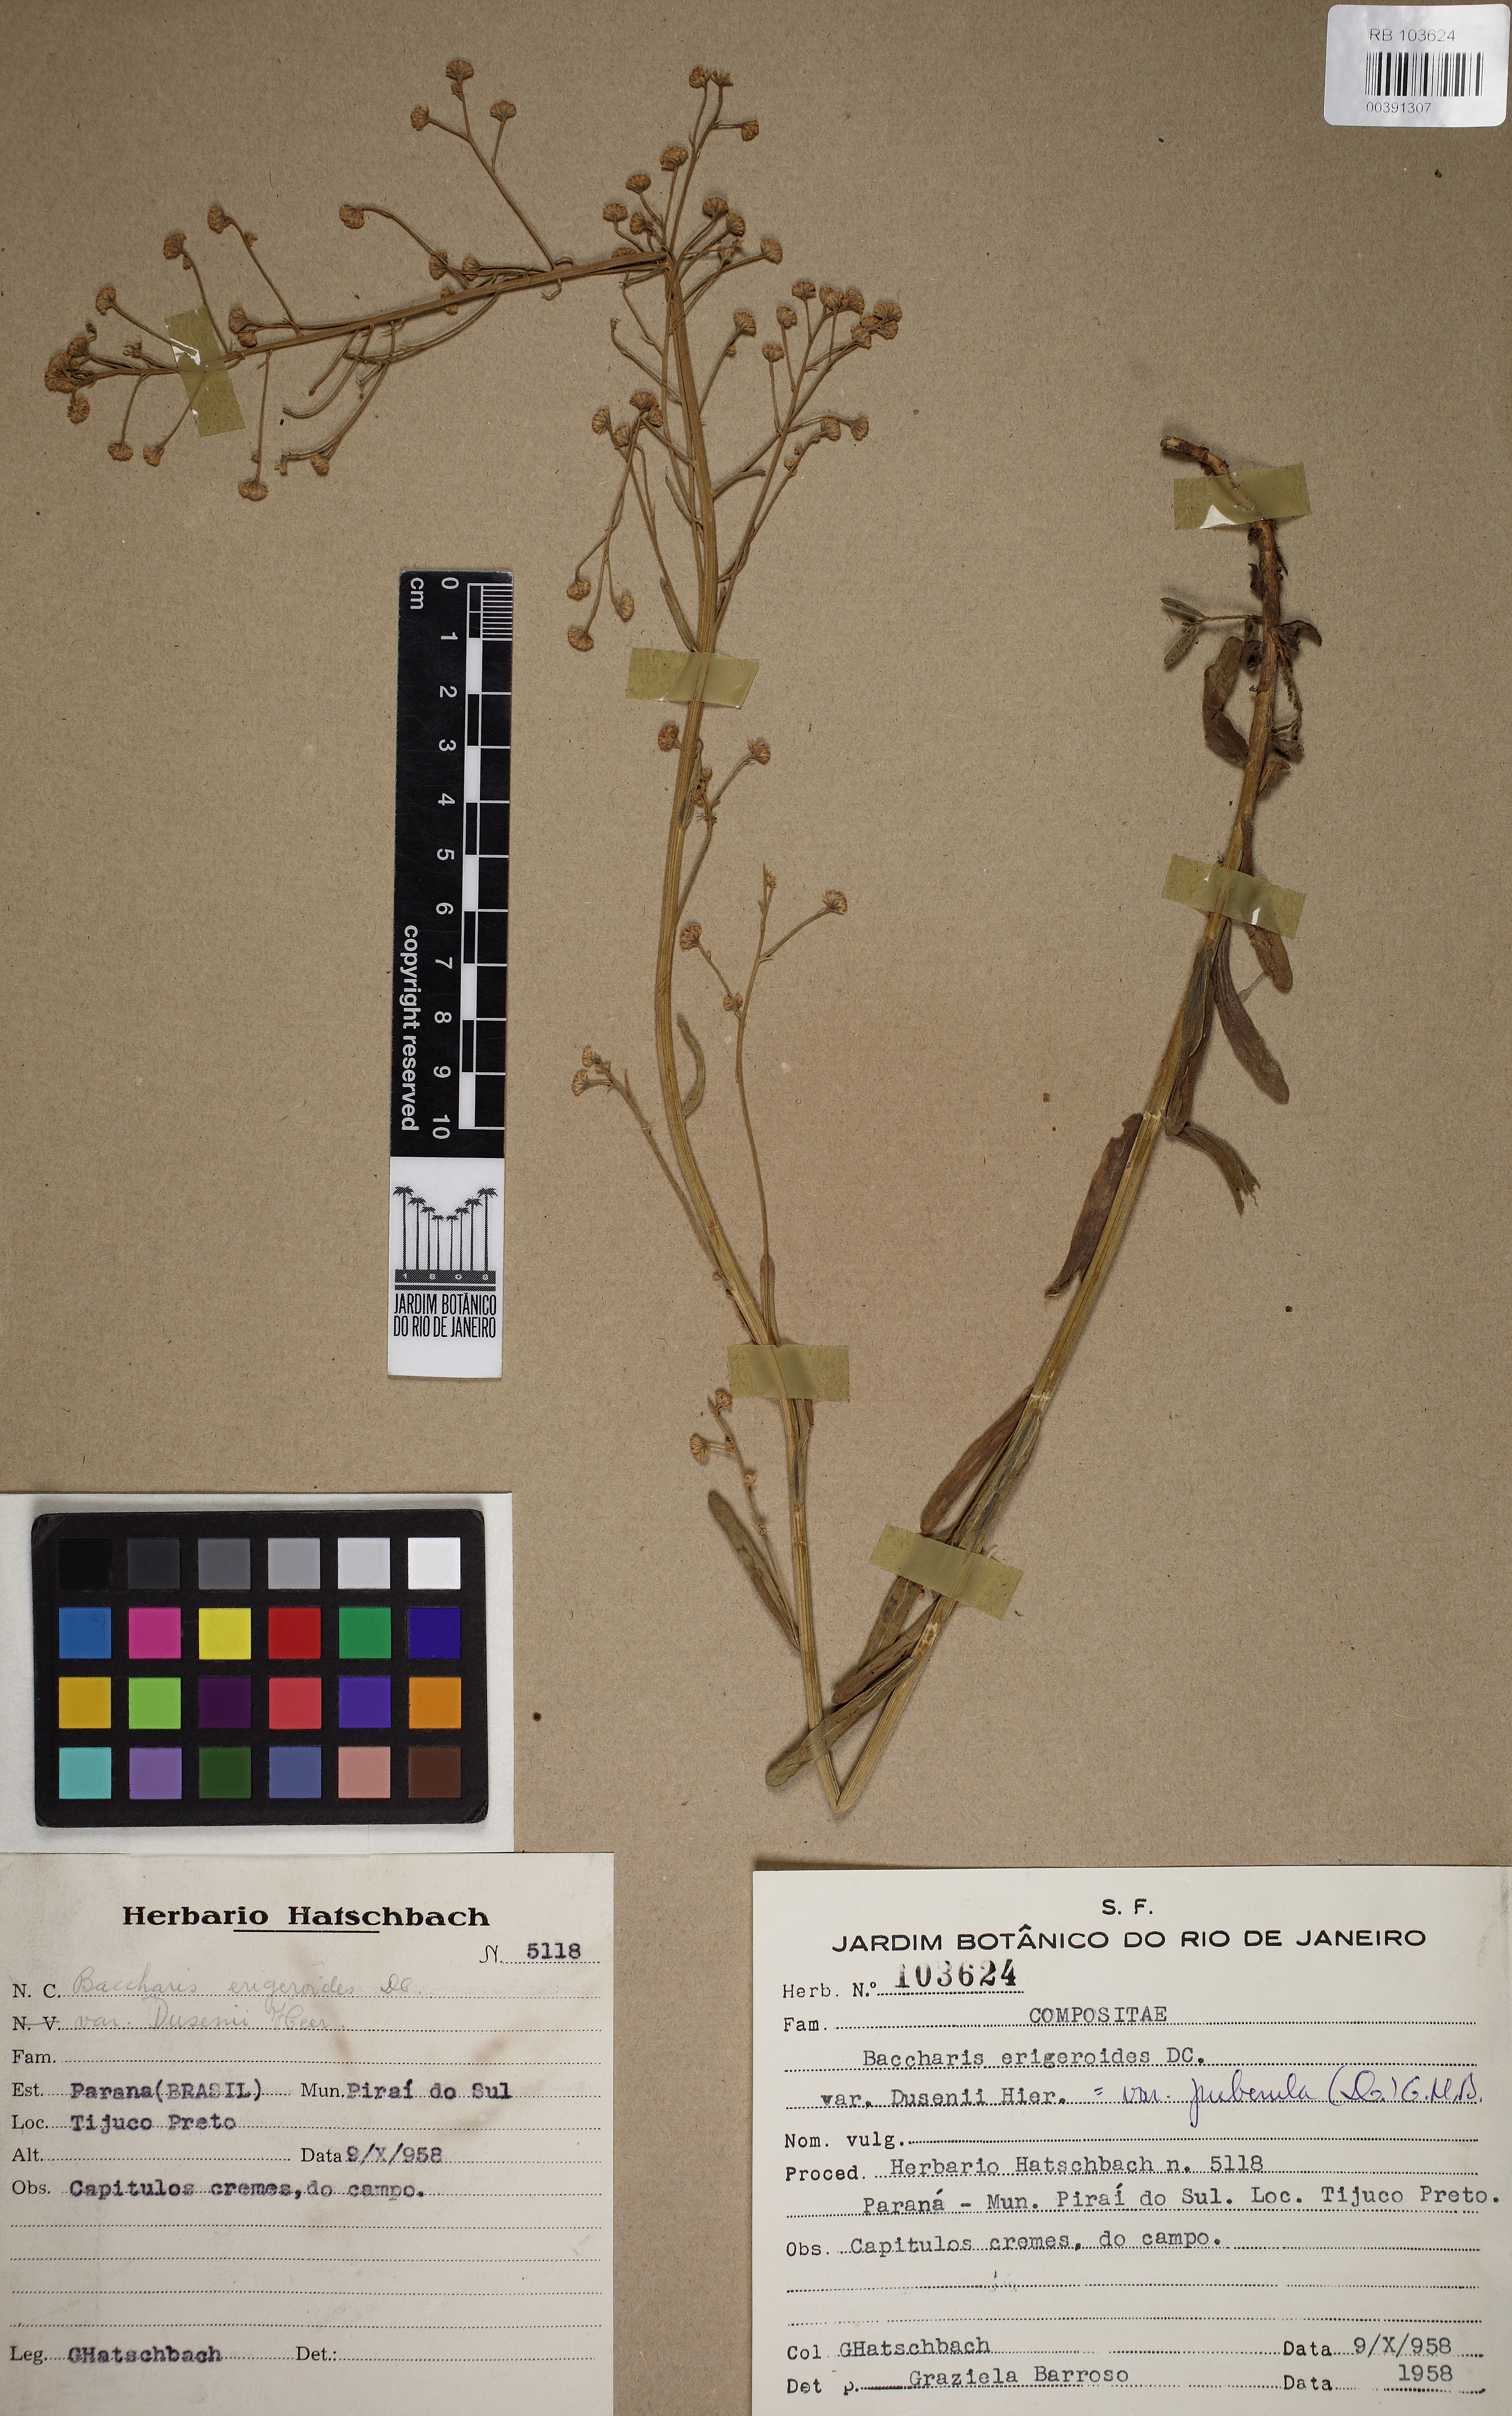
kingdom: Plantae
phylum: Tracheophyta
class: Magnoliopsida
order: Asterales
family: Asteraceae
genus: Baccharis
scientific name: Baccharis erigeroides
